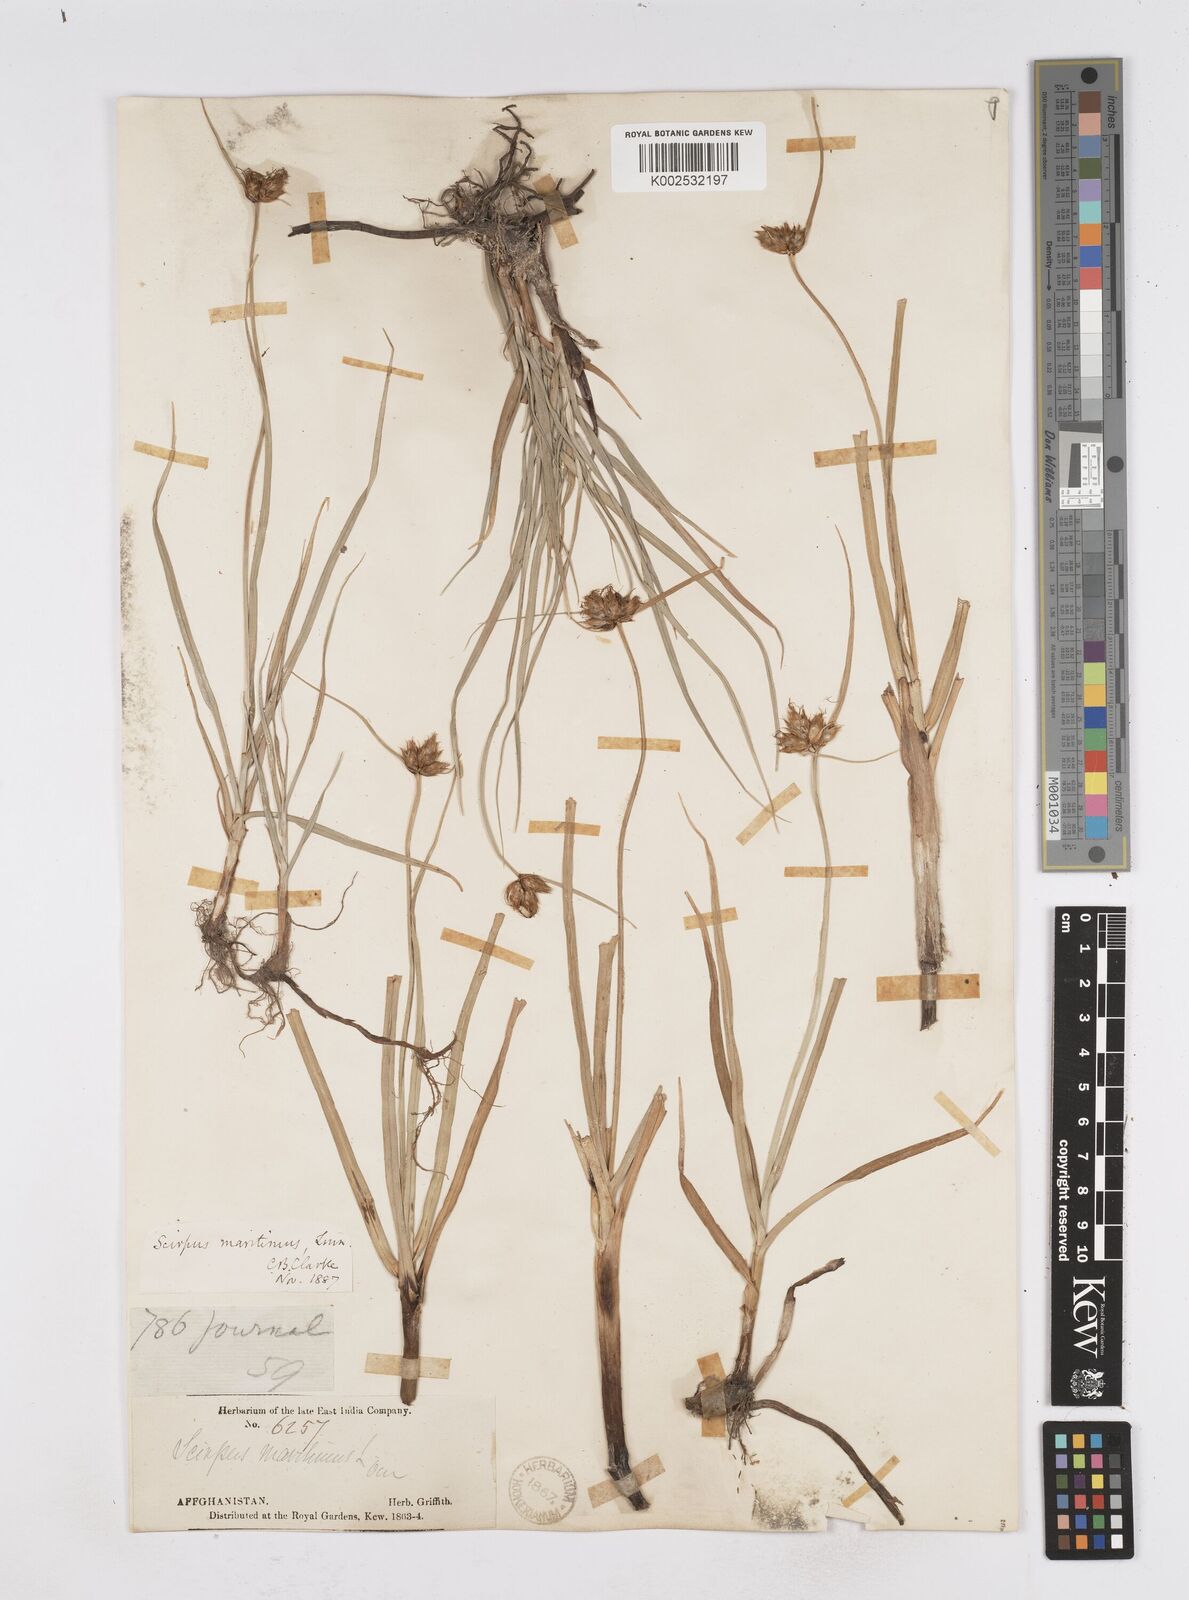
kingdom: Plantae
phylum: Tracheophyta
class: Liliopsida
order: Poales
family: Cyperaceae
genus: Bolboschoenus
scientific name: Bolboschoenus maritimus
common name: Sea club-rush
